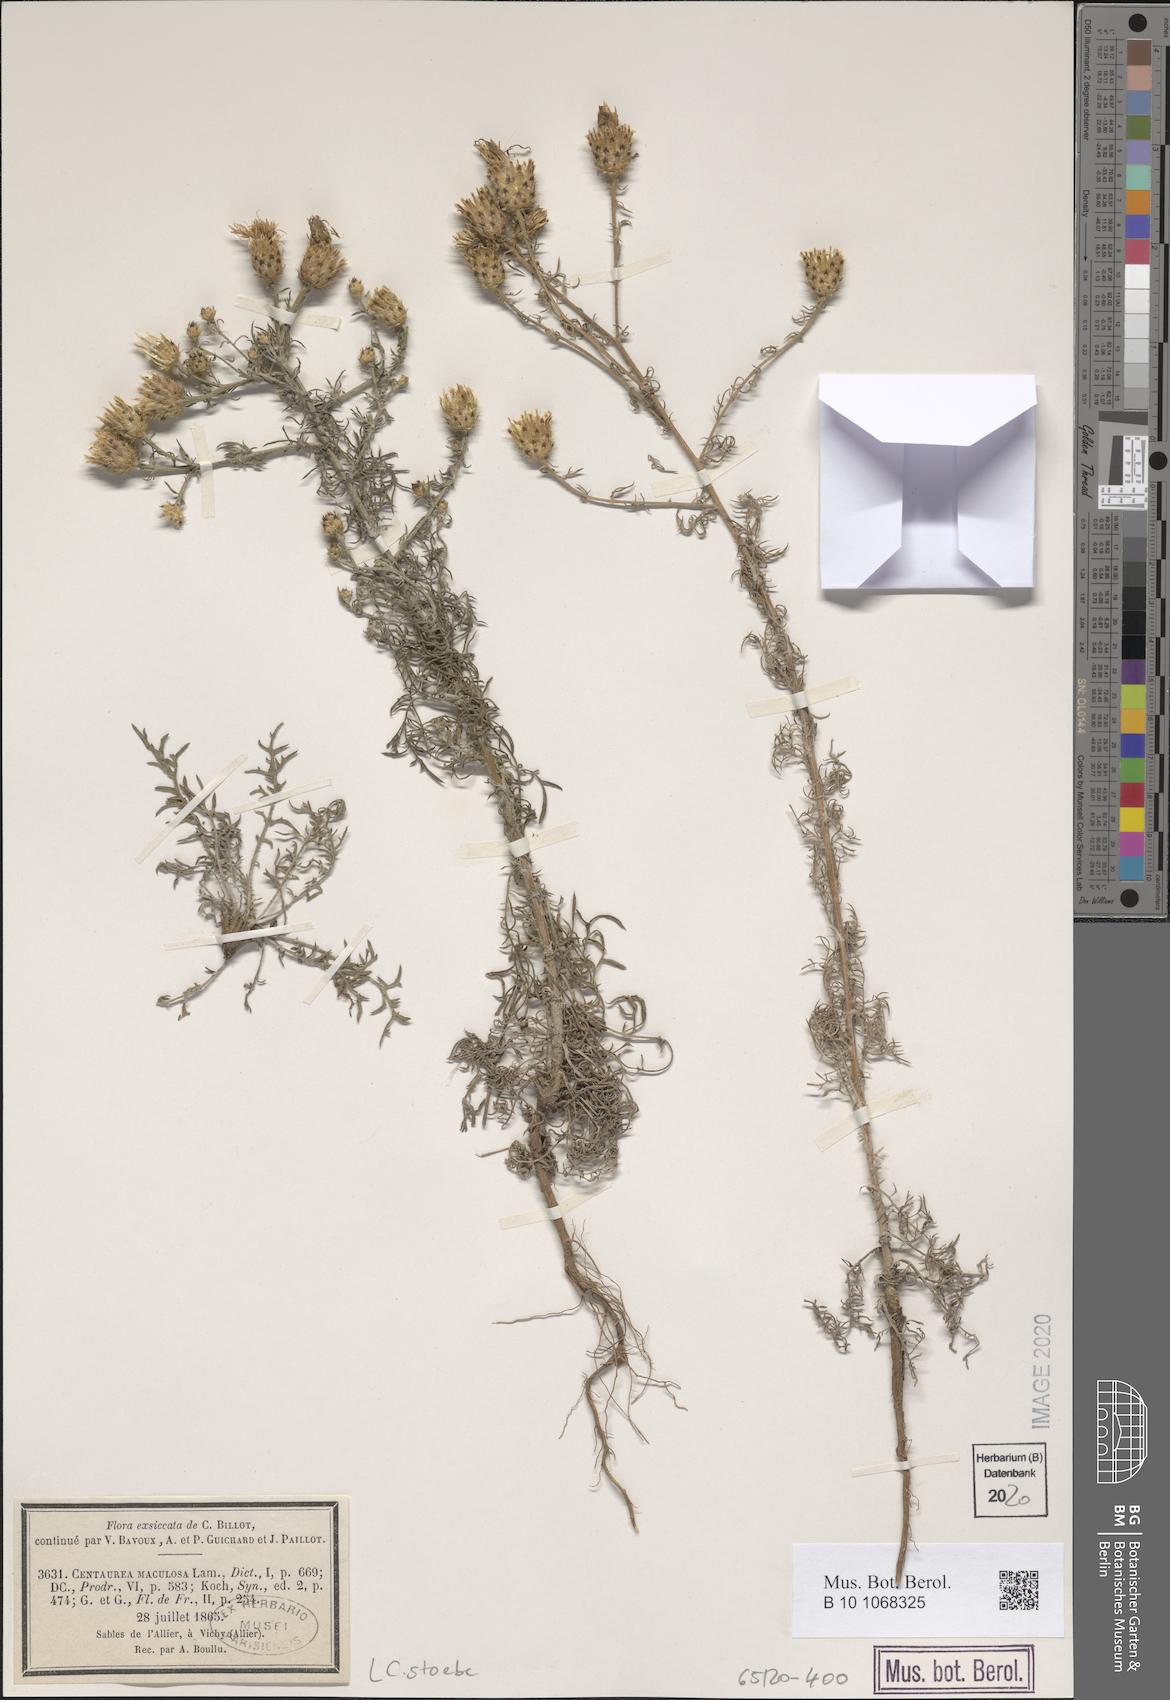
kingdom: Plantae
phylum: Tracheophyta
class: Magnoliopsida
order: Asterales
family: Asteraceae
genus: Centaurea
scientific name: Centaurea stoebe
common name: Spotted knapweed
